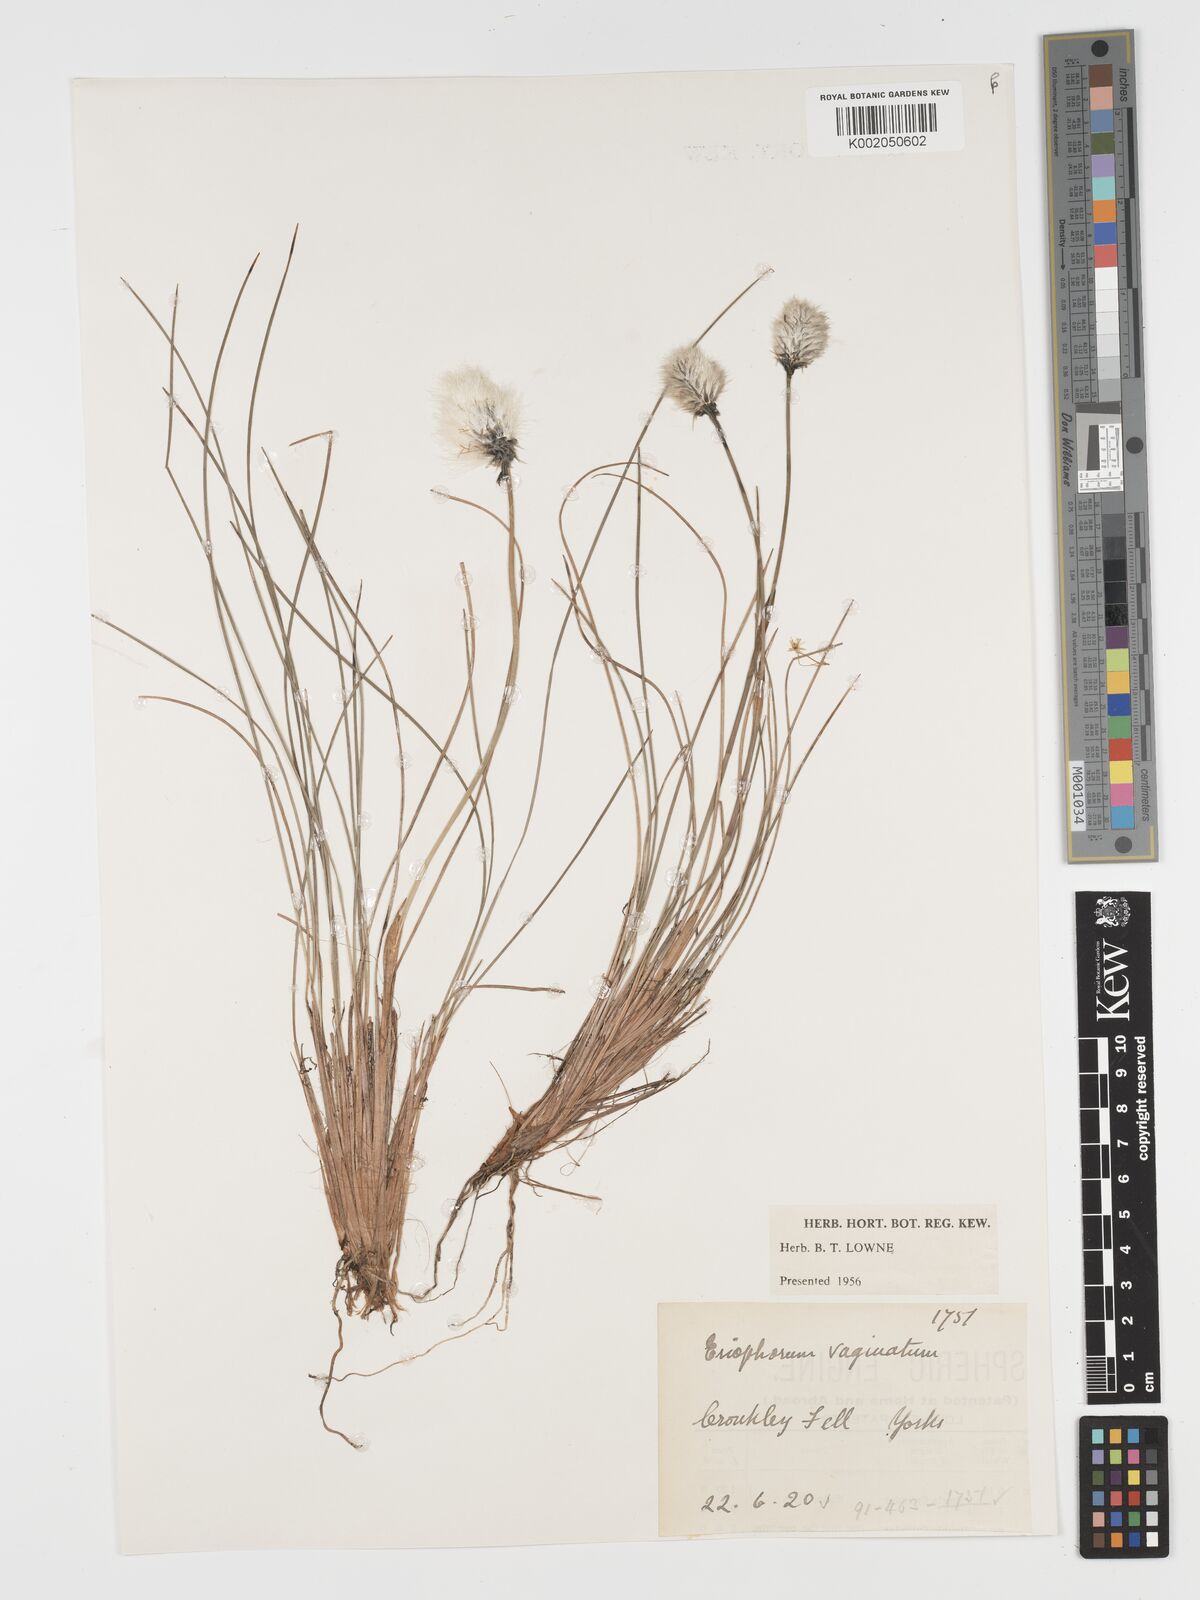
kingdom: Plantae
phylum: Tracheophyta
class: Liliopsida
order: Poales
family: Cyperaceae
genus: Eriophorum
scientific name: Eriophorum vaginatum
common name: Hare's-tail cottongrass
